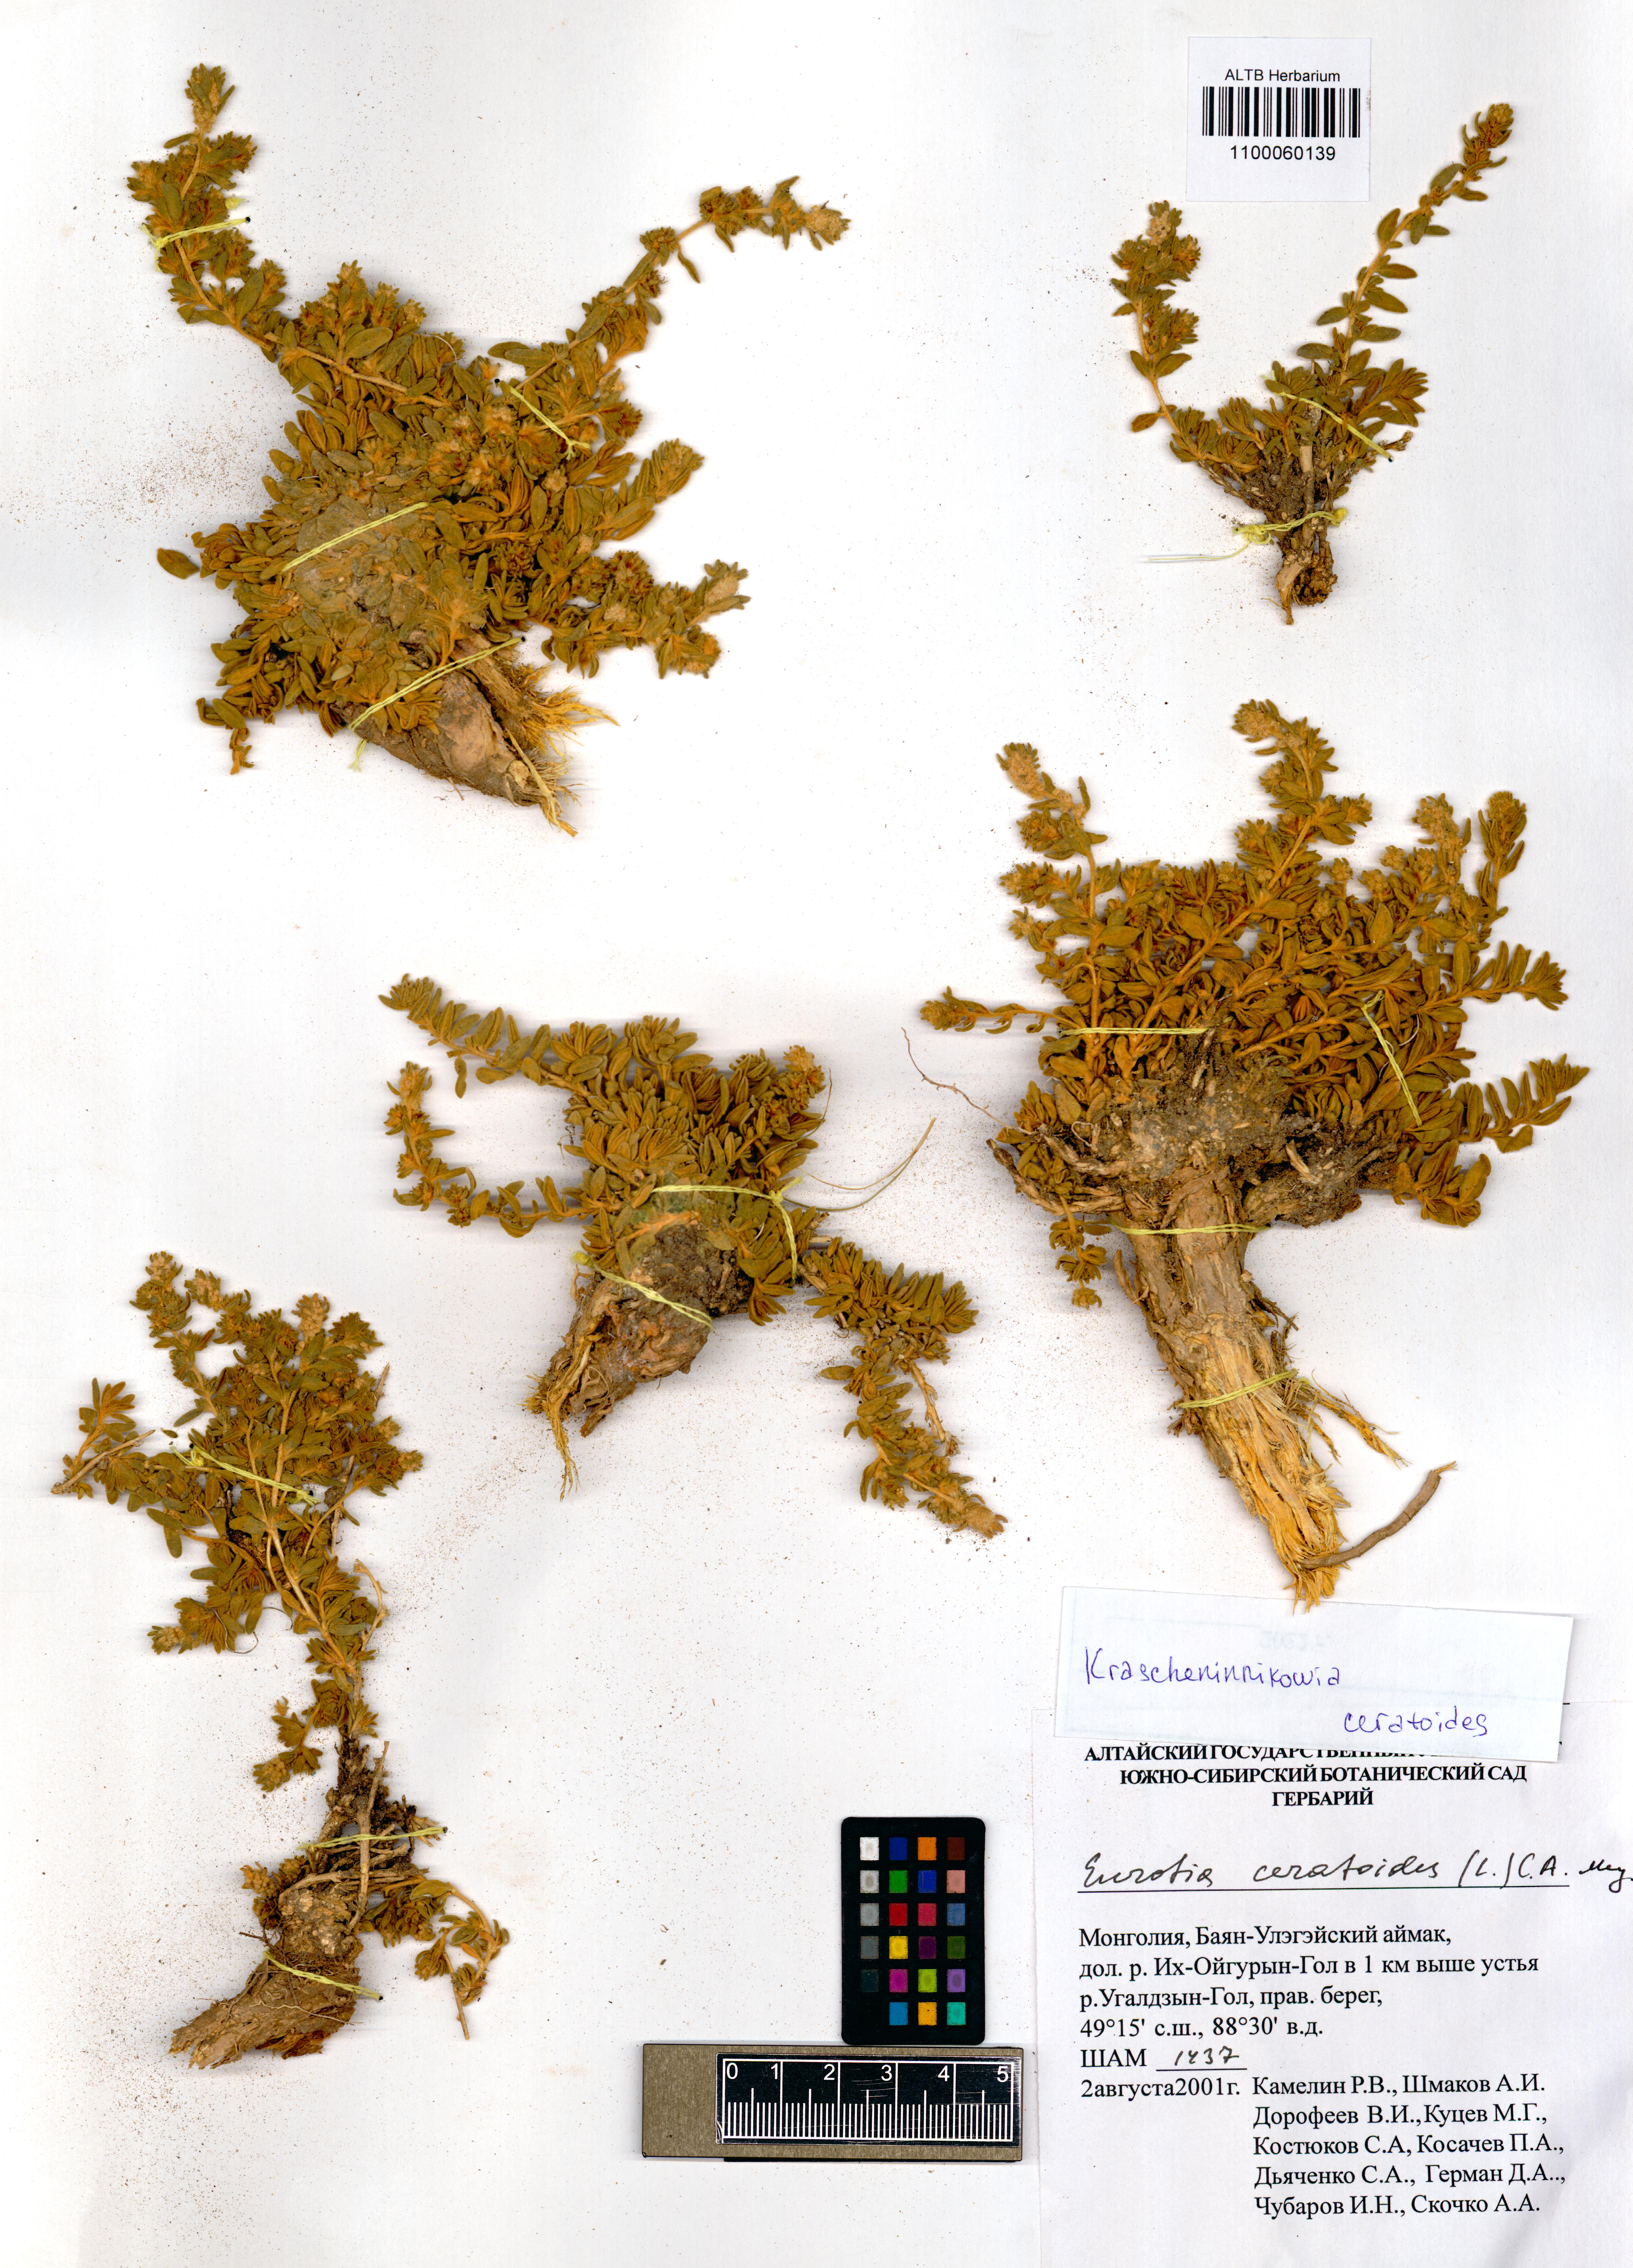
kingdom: Plantae
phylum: Tracheophyta
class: Magnoliopsida
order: Caryophyllales
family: Amaranthaceae
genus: Krascheninnikovia
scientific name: Krascheninnikovia ceratoides
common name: Pamirian winterfat
